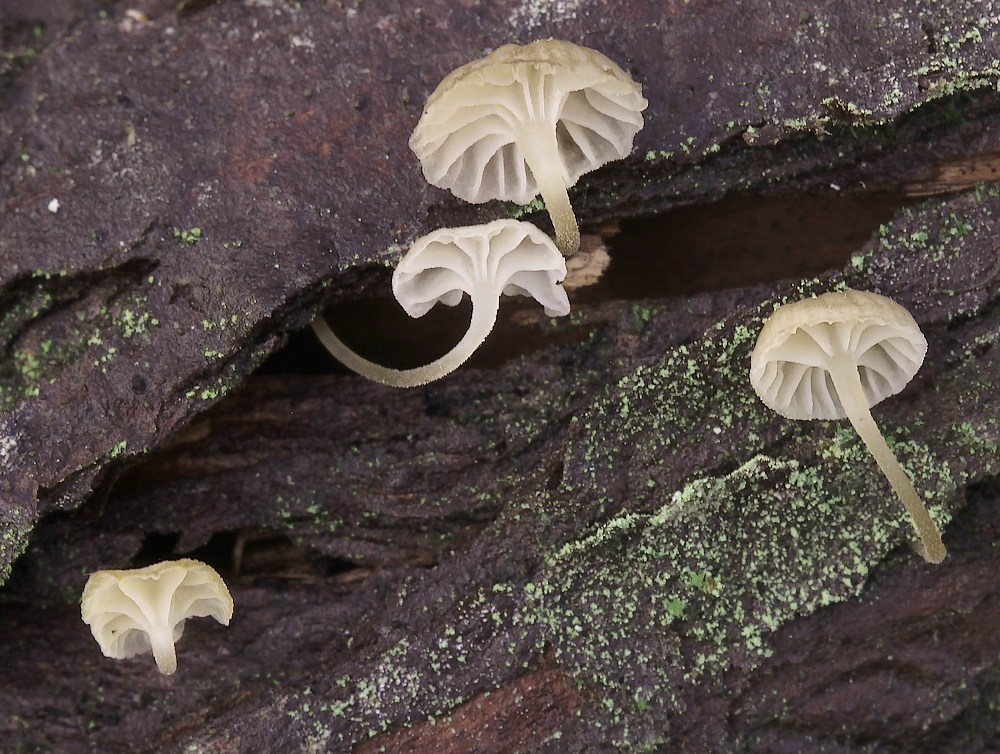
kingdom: Fungi
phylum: Basidiomycota
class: Agaricomycetes
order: Agaricales
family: Porotheleaceae
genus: Phloeomana
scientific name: Phloeomana
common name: huesvamp
